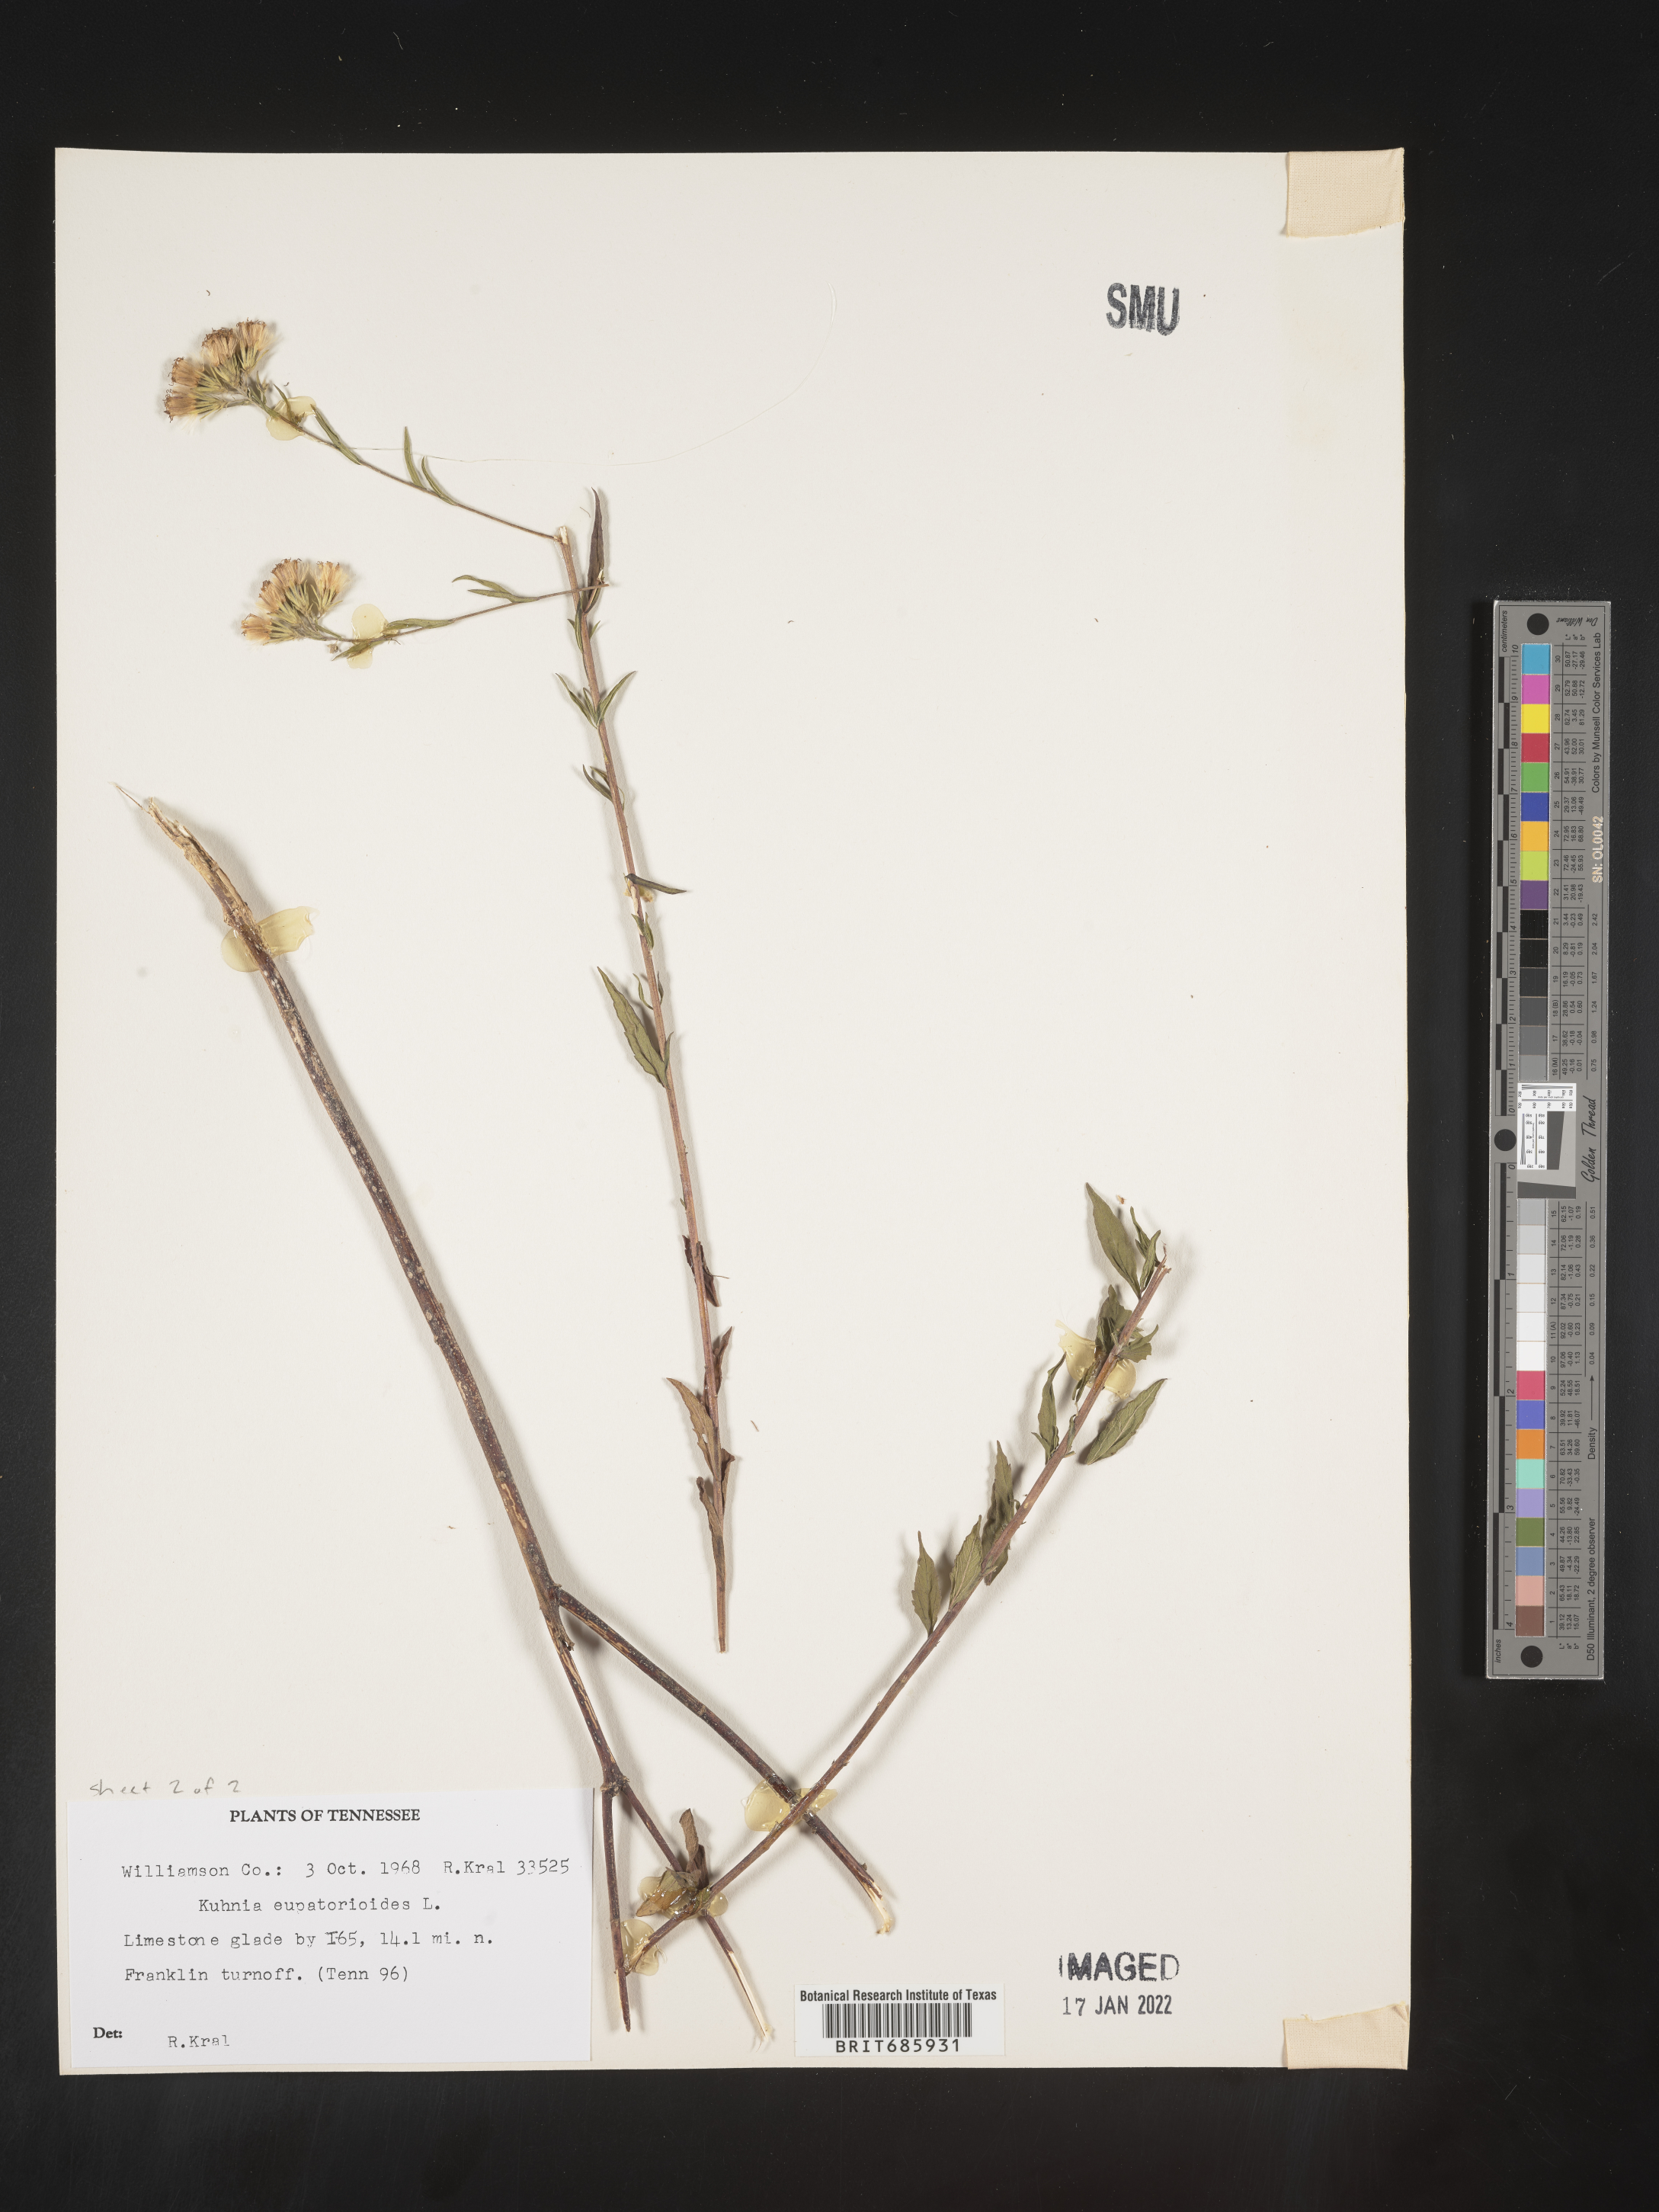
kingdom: Plantae
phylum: Tracheophyta
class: Magnoliopsida
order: Asterales
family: Asteraceae
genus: Brickellia
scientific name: Brickellia eupatorioides
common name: False boneset
